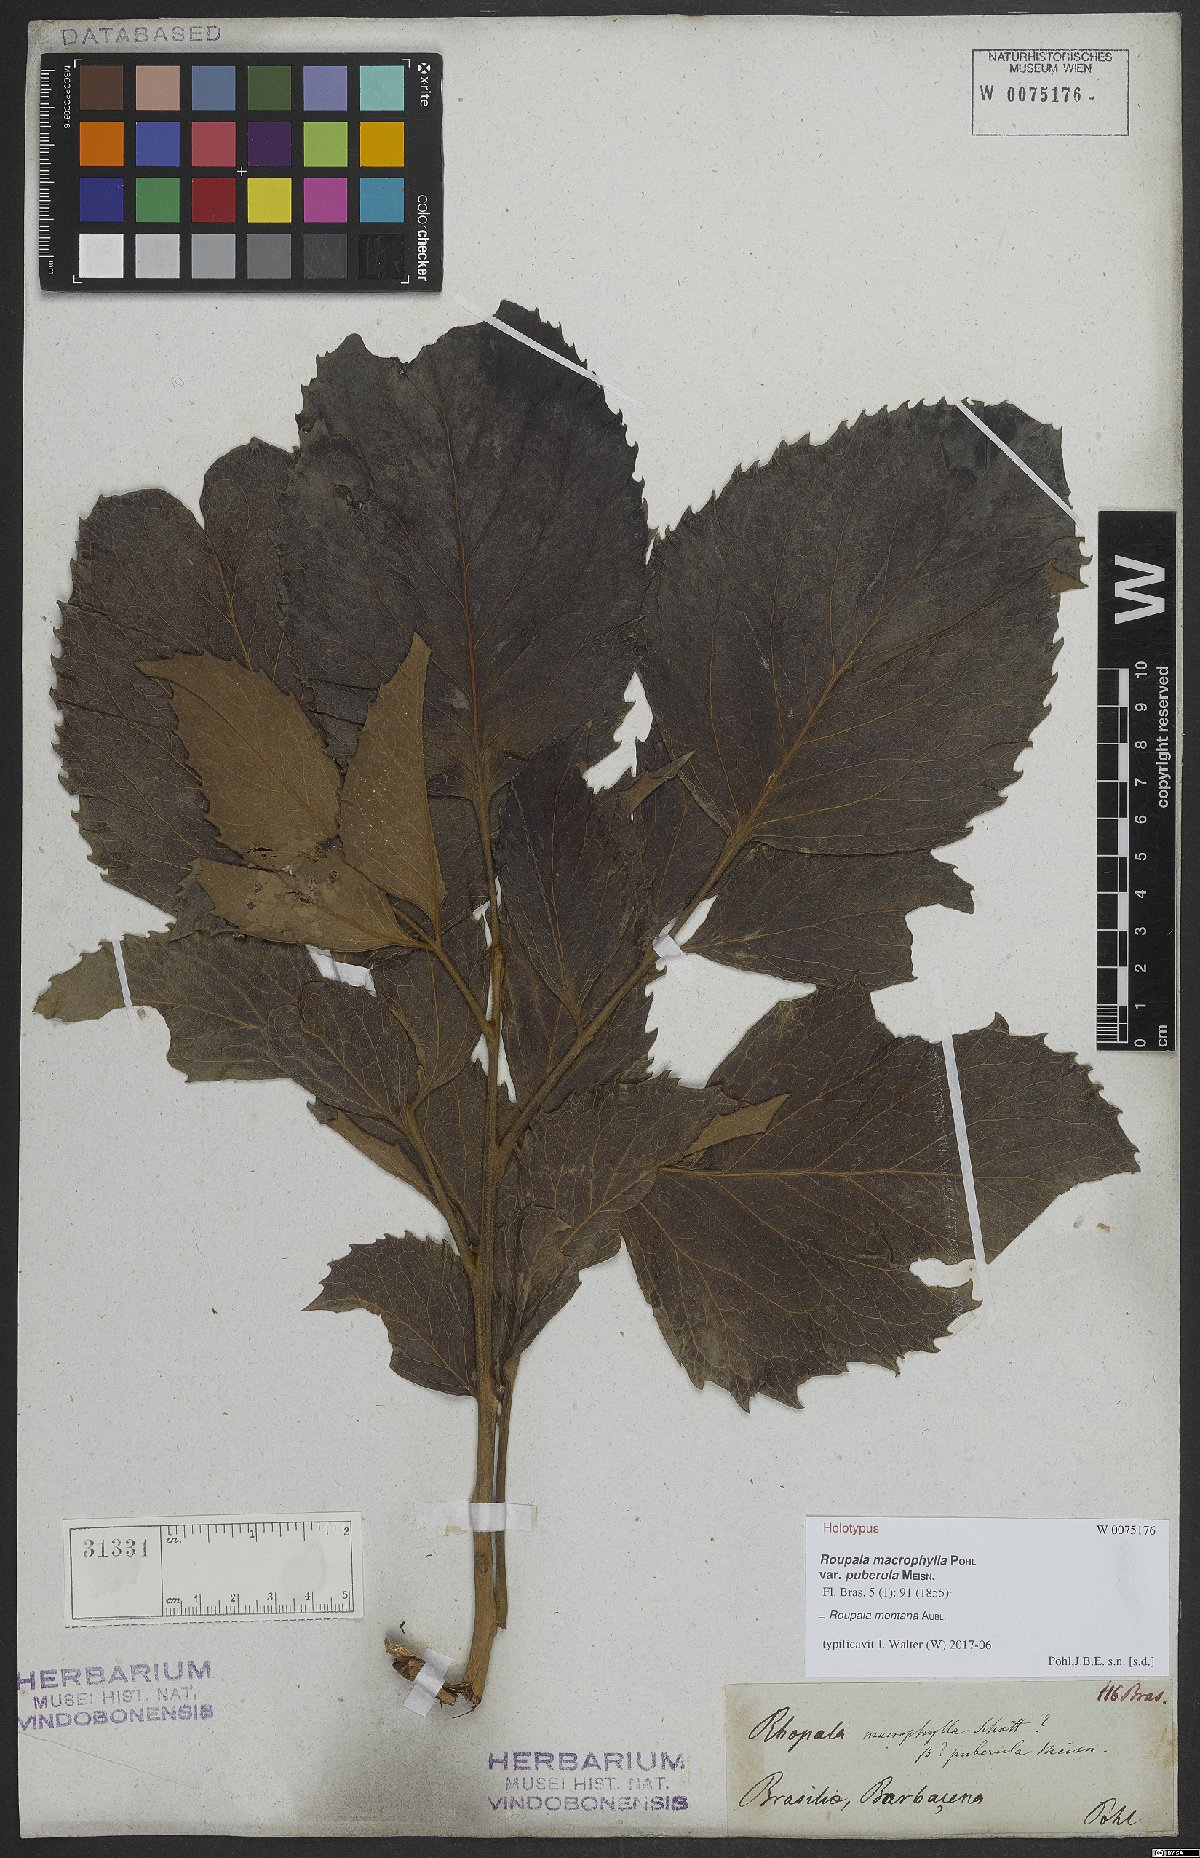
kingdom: Plantae
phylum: Tracheophyta
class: Magnoliopsida
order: Proteales
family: Proteaceae
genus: Roupala
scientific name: Roupala montana
